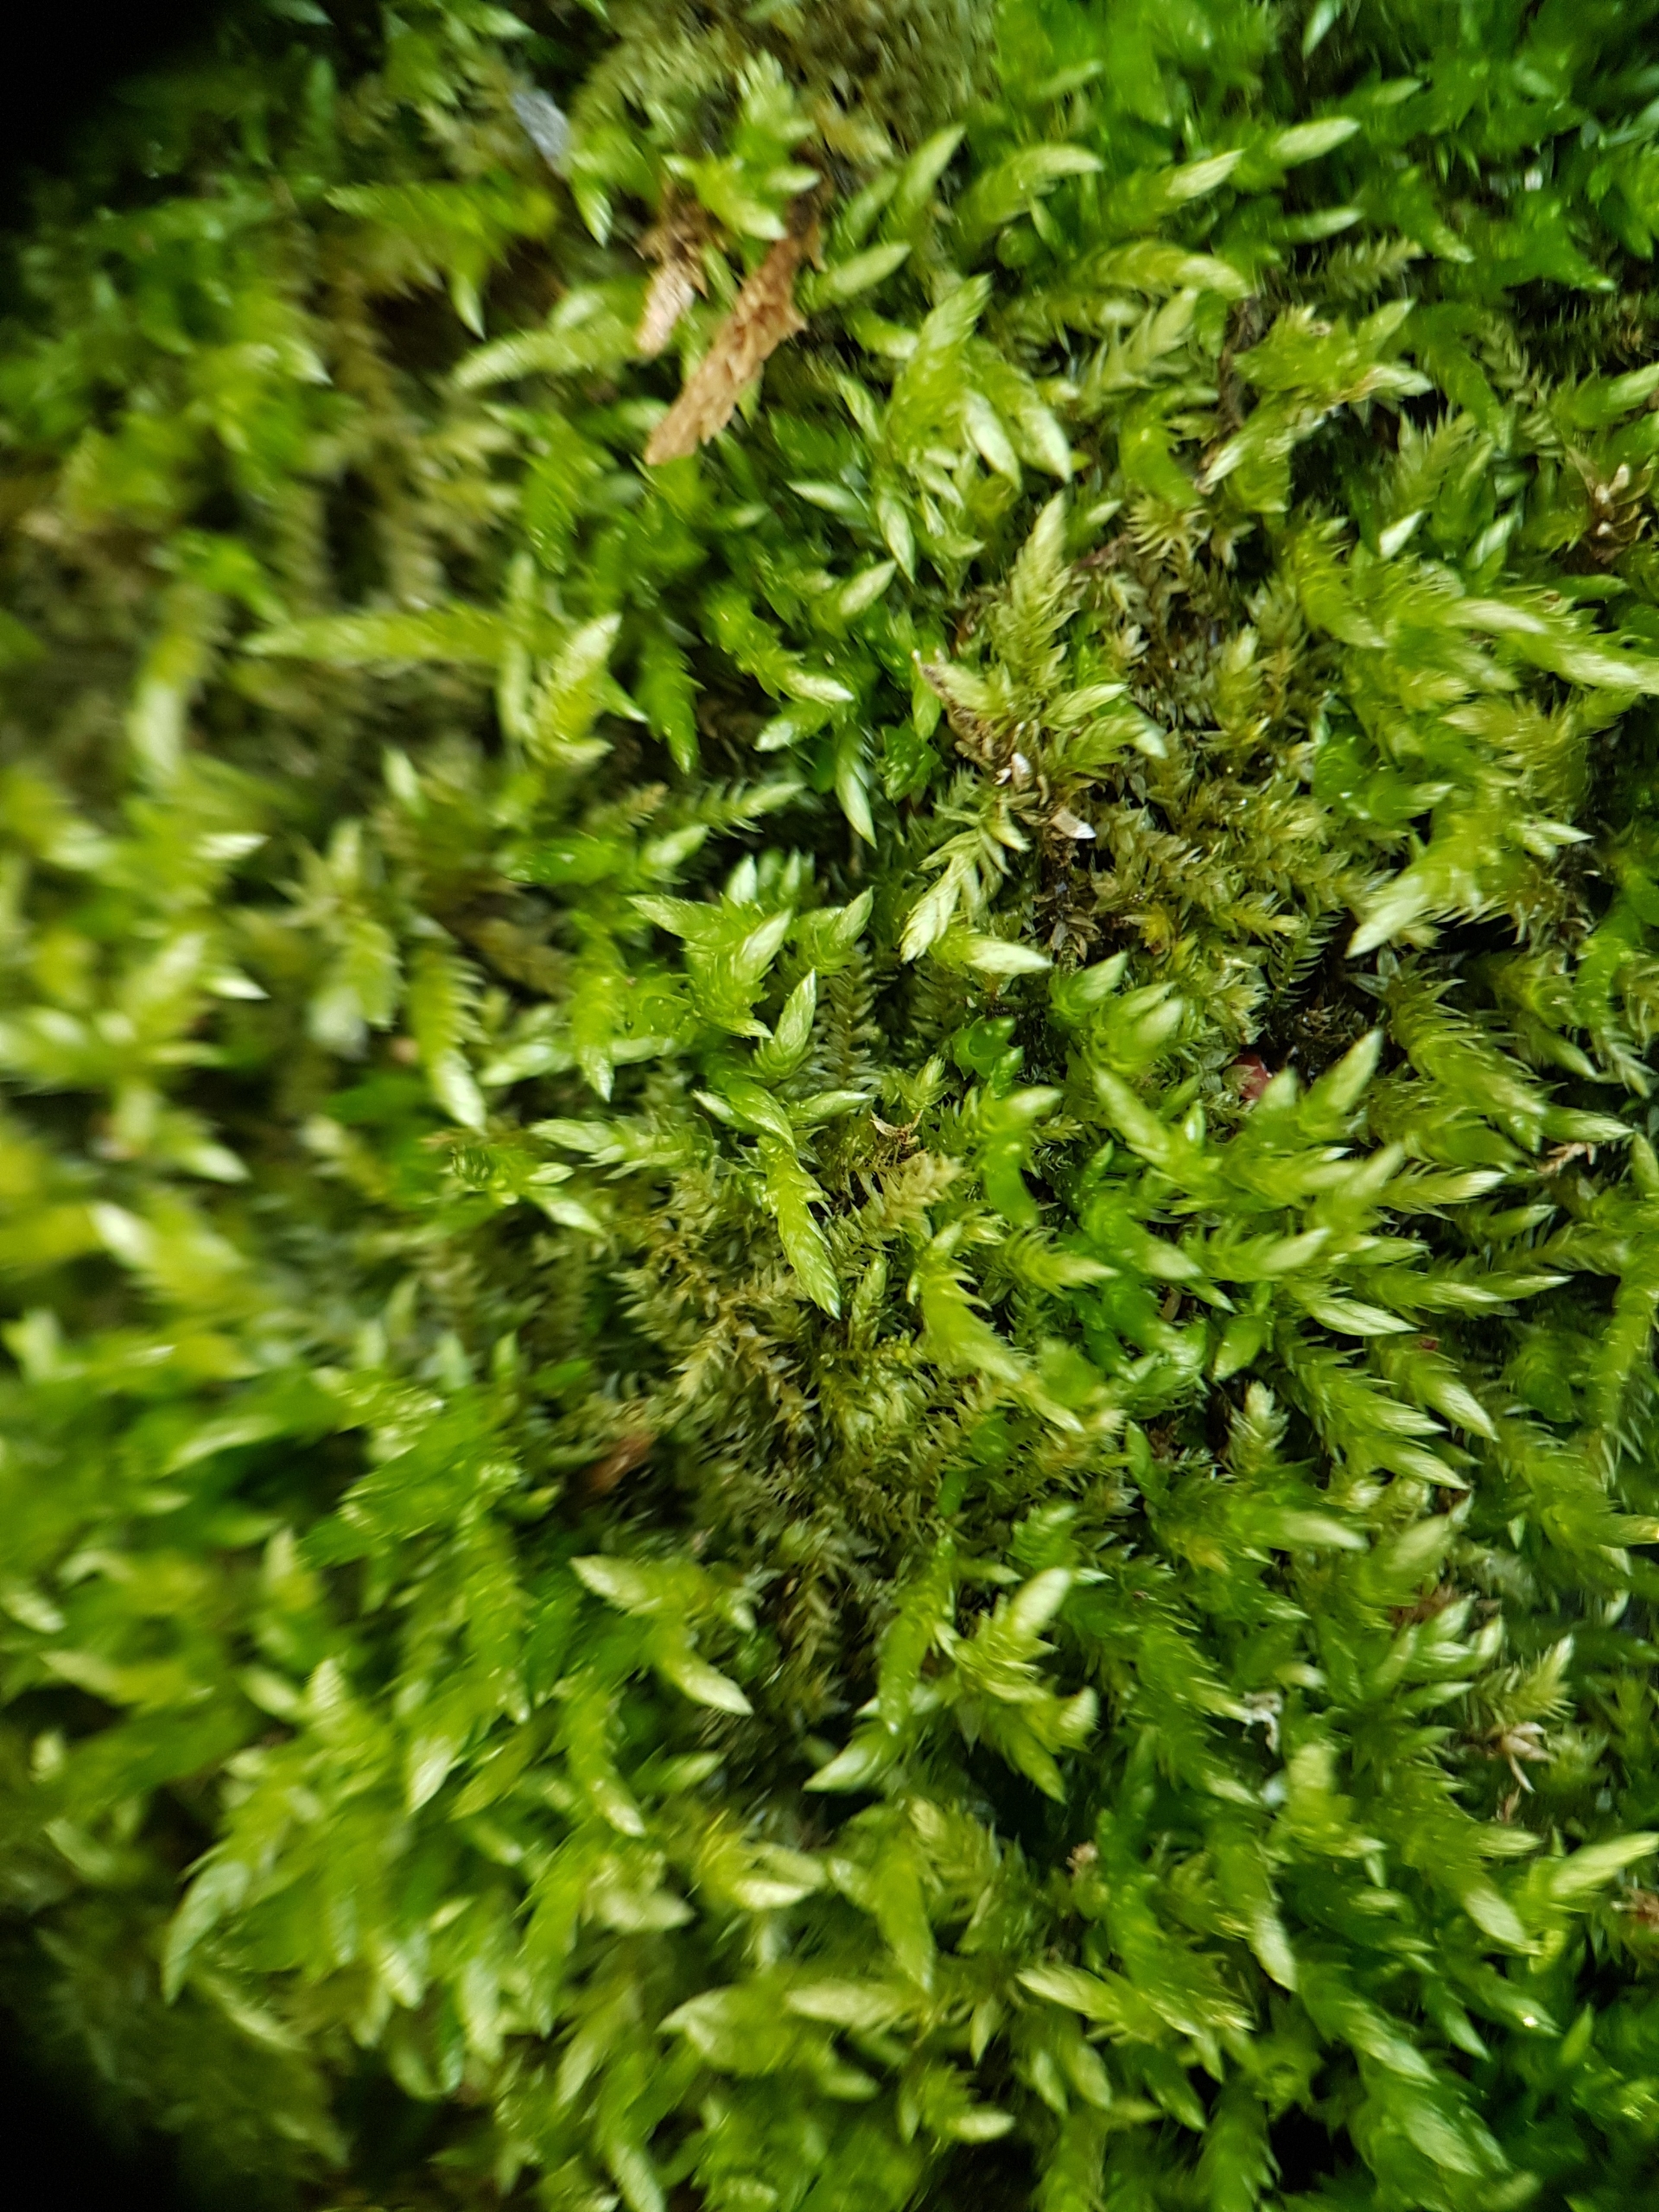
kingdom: Plantae
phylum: Bryophyta
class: Bryopsida
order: Hypnales
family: Brachytheciaceae
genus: Brachythecium
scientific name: Brachythecium rivulare
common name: Væld-kortkapsel
